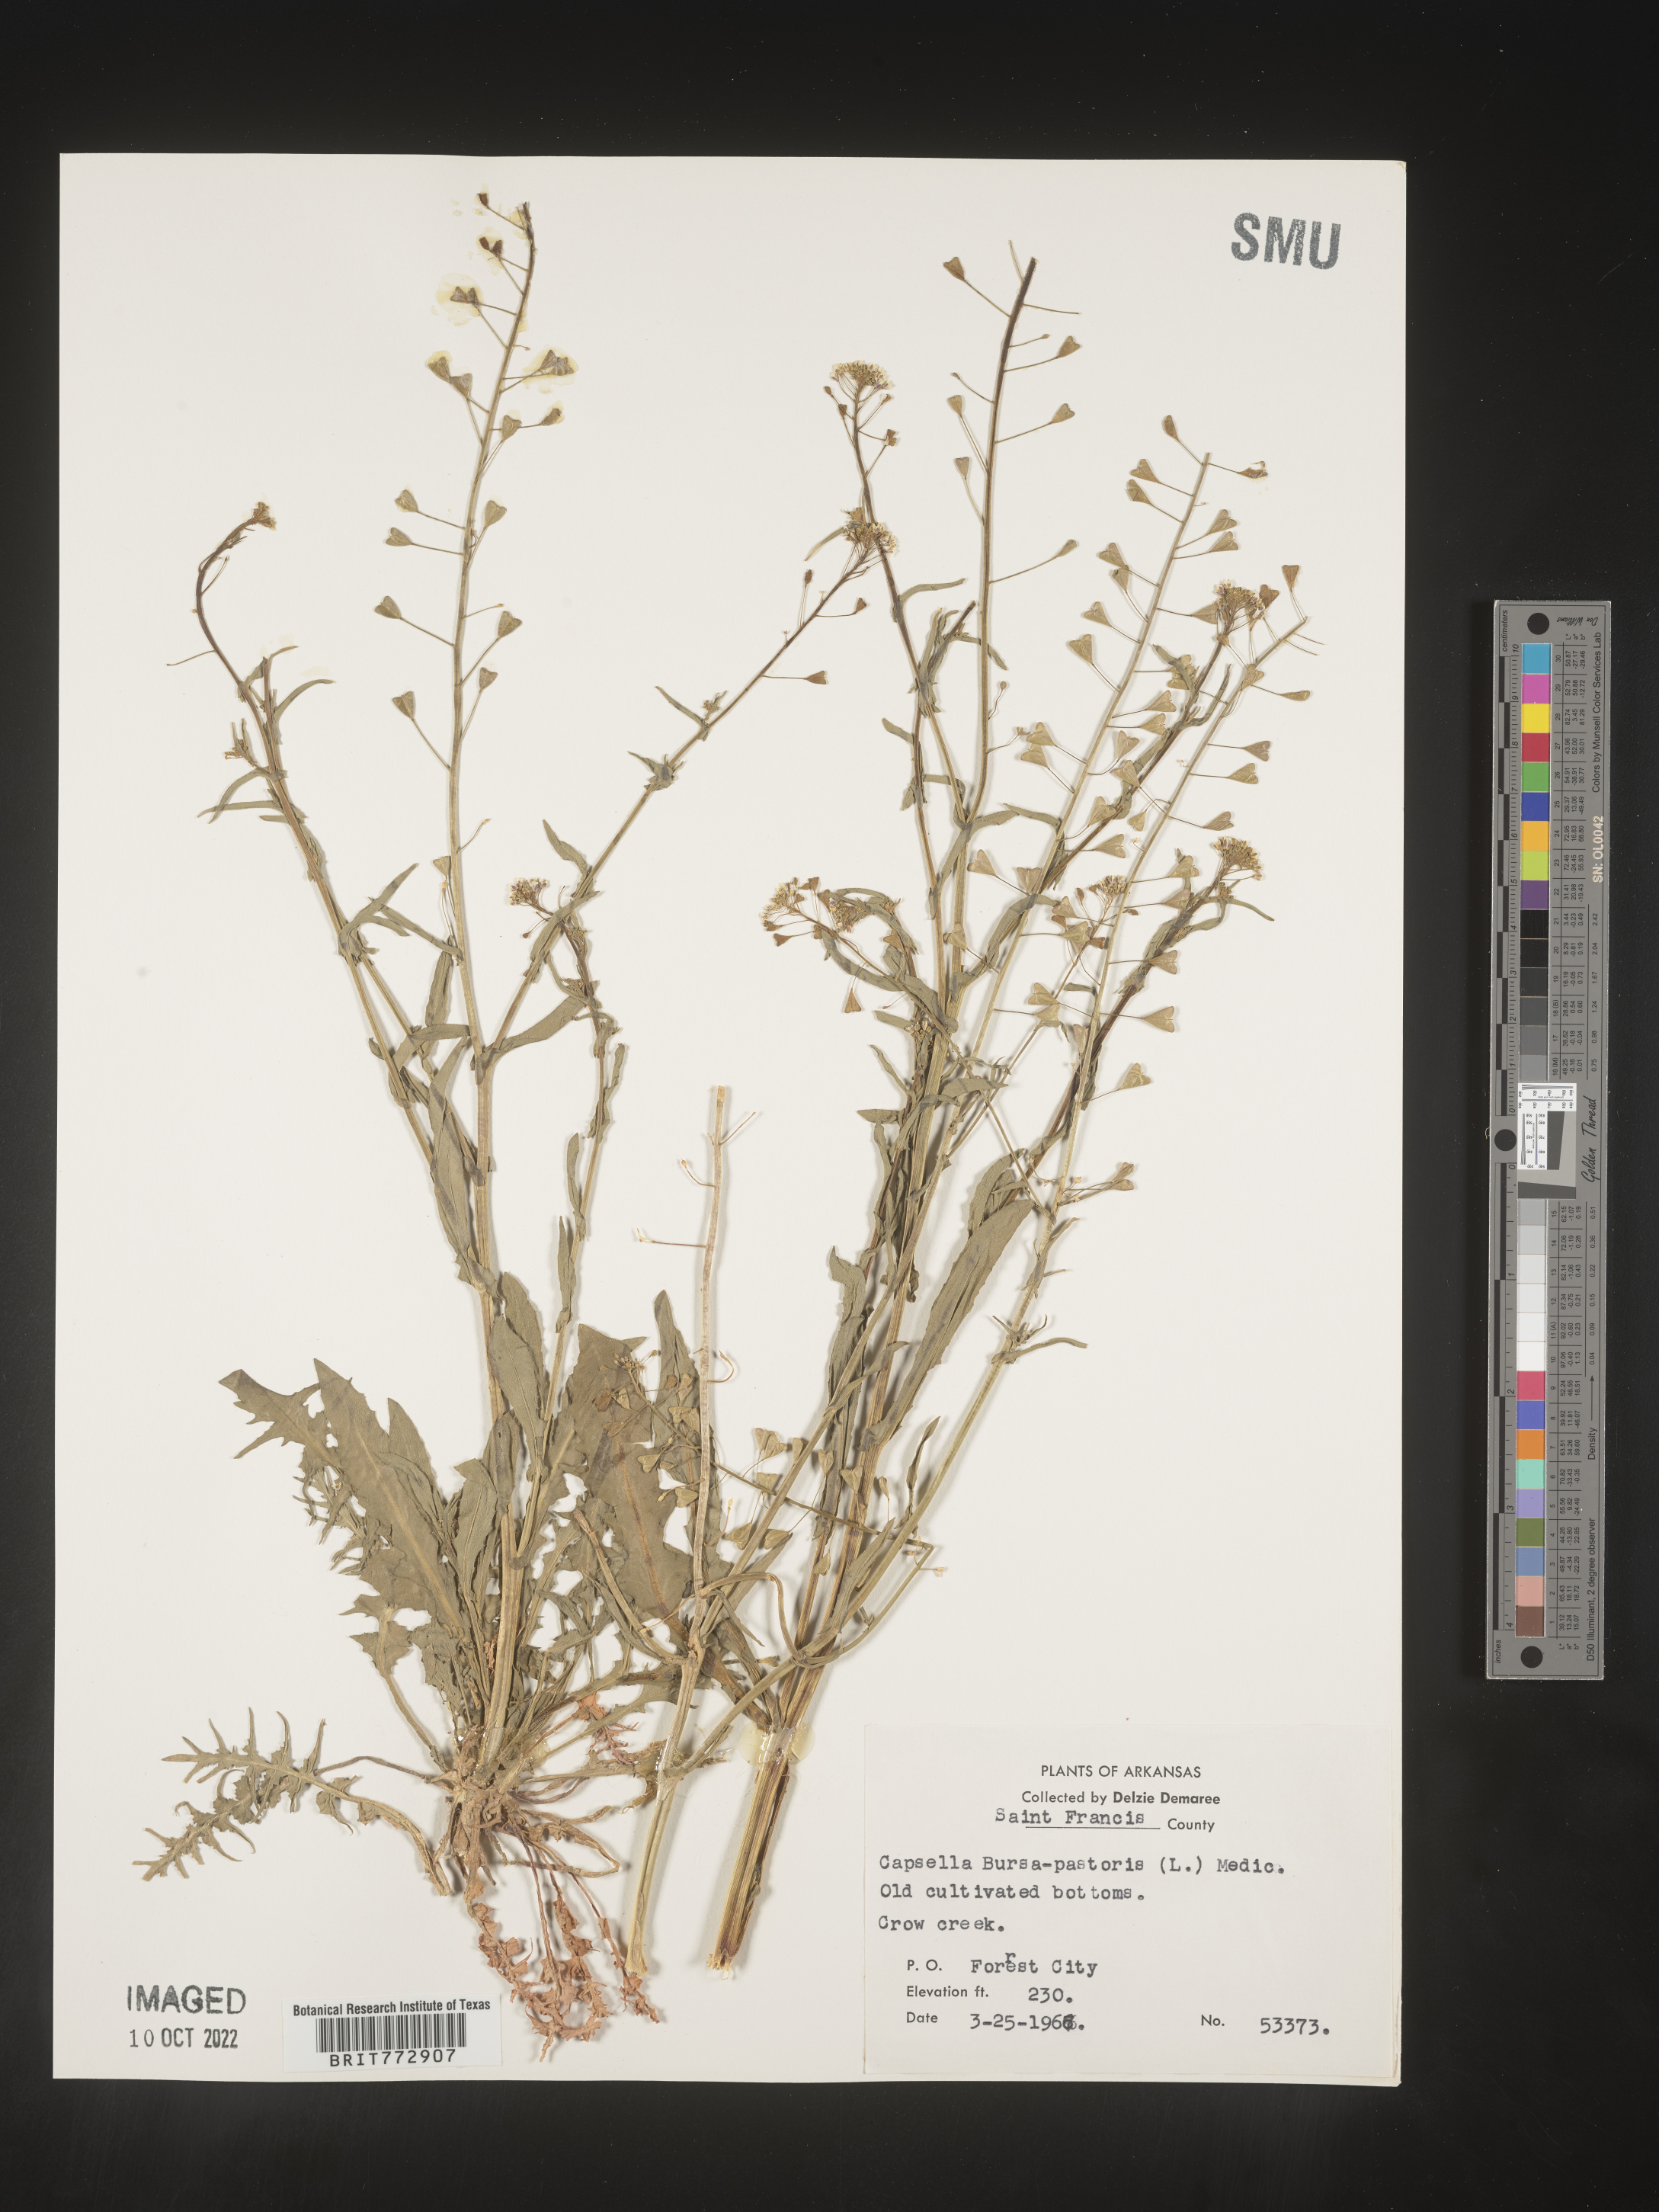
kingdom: Plantae
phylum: Tracheophyta
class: Magnoliopsida
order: Brassicales
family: Brassicaceae
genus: Capsella
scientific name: Capsella bursa-pastoris
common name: Shepherd's purse
